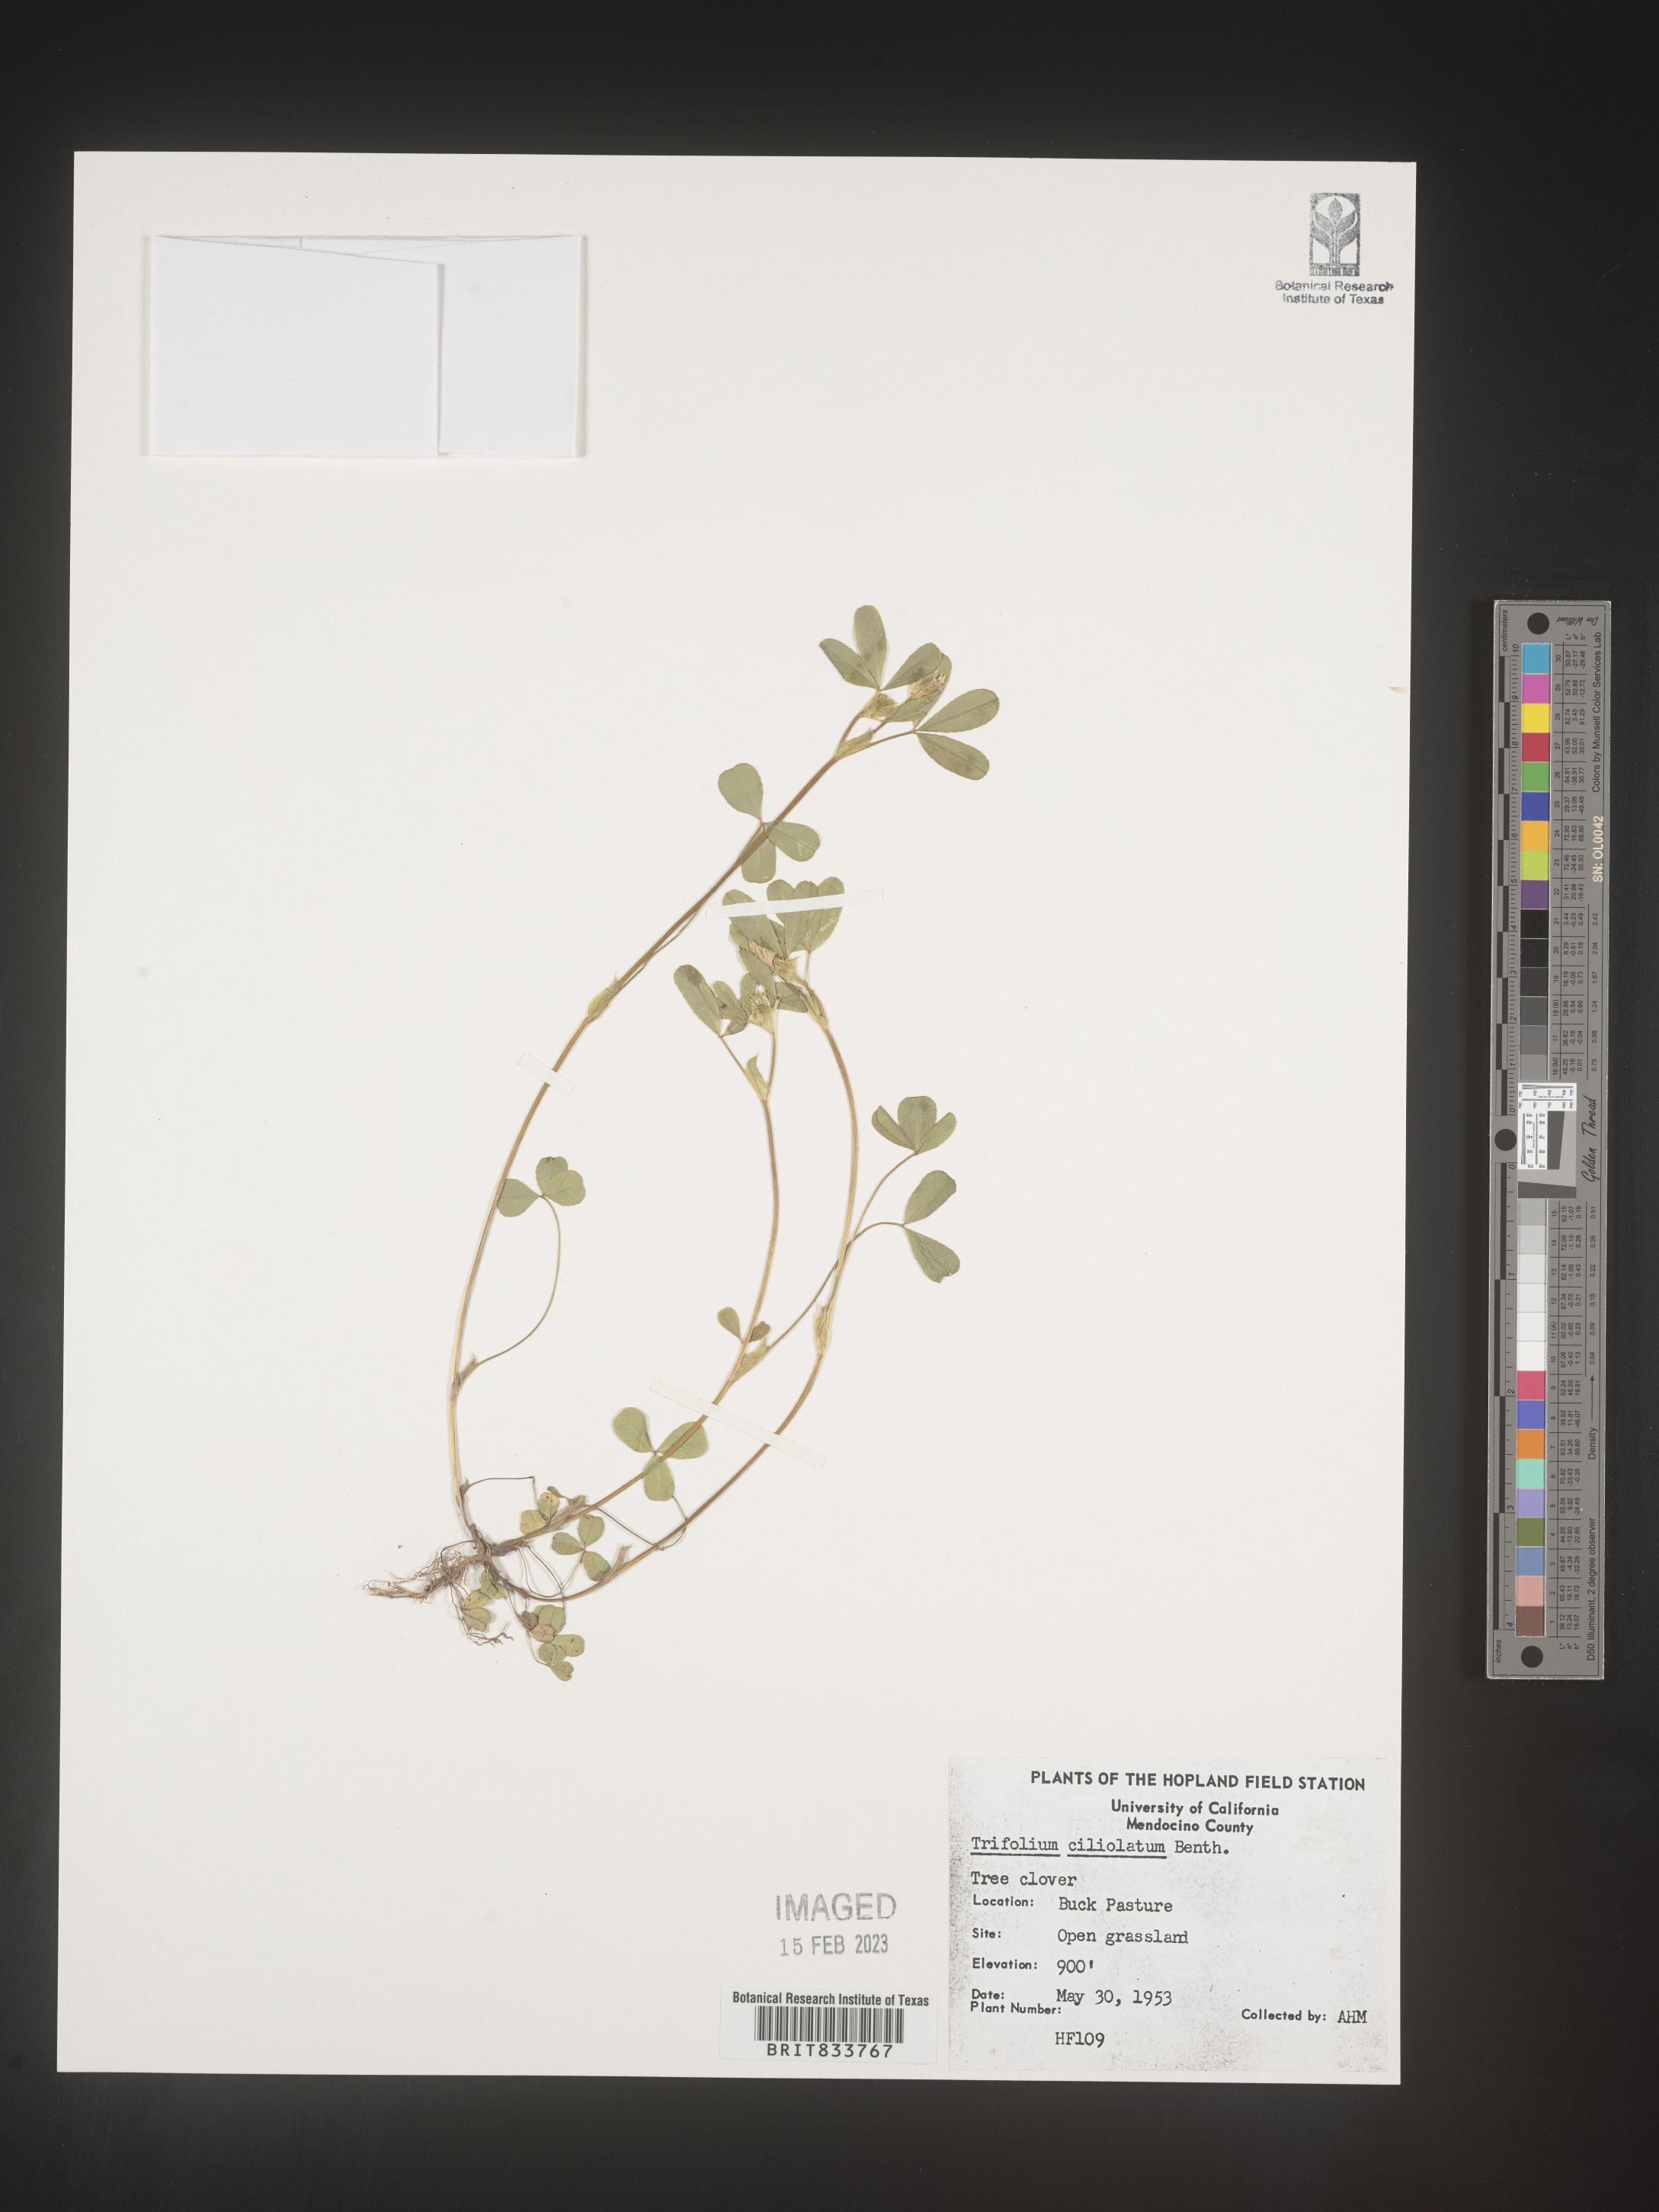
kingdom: Plantae
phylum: Tracheophyta
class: Magnoliopsida
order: Fabales
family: Fabaceae
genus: Trifolium
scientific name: Trifolium
